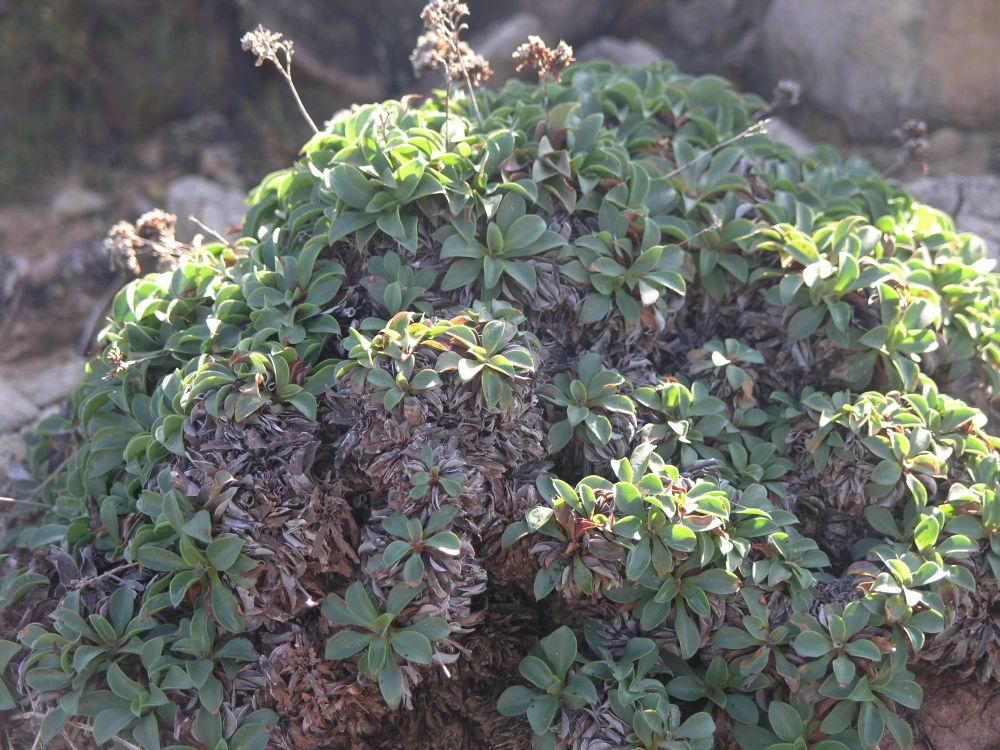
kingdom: Plantae
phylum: Tracheophyta
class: Magnoliopsida
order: Caryophyllales
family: Plumbaginaceae
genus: Limonium
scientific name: Limonium ovalifolium
